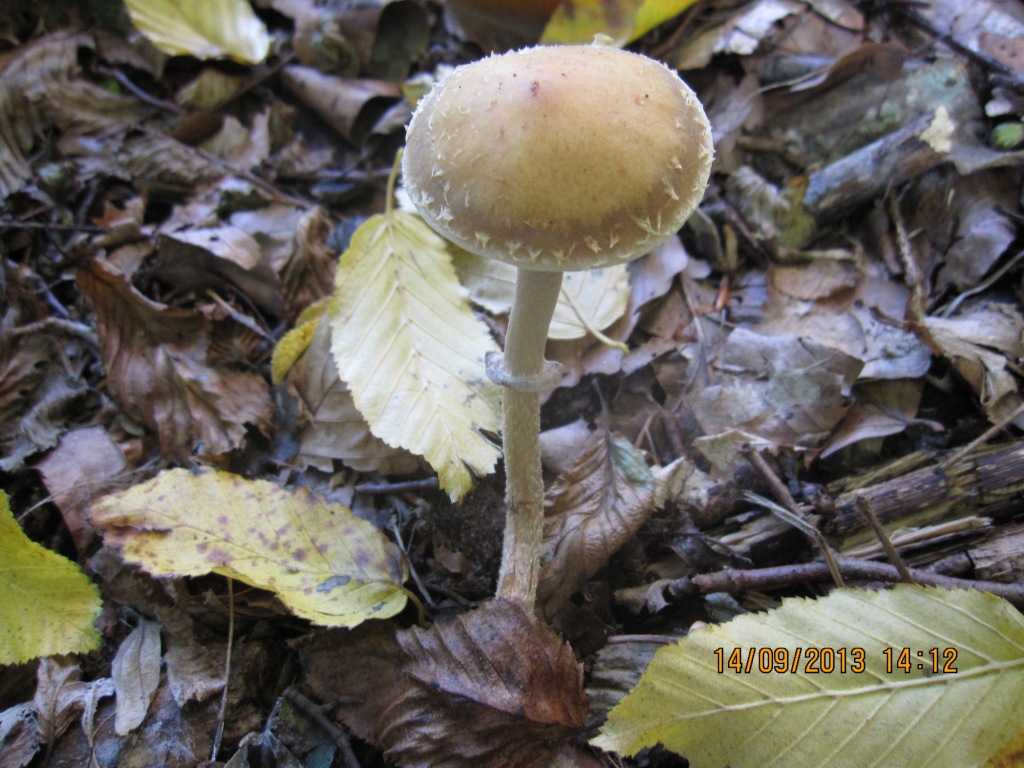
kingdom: Fungi
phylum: Basidiomycota
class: Agaricomycetes
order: Agaricales
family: Strophariaceae
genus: Leratiomyces
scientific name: Leratiomyces squamosus
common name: skællet bredblad
